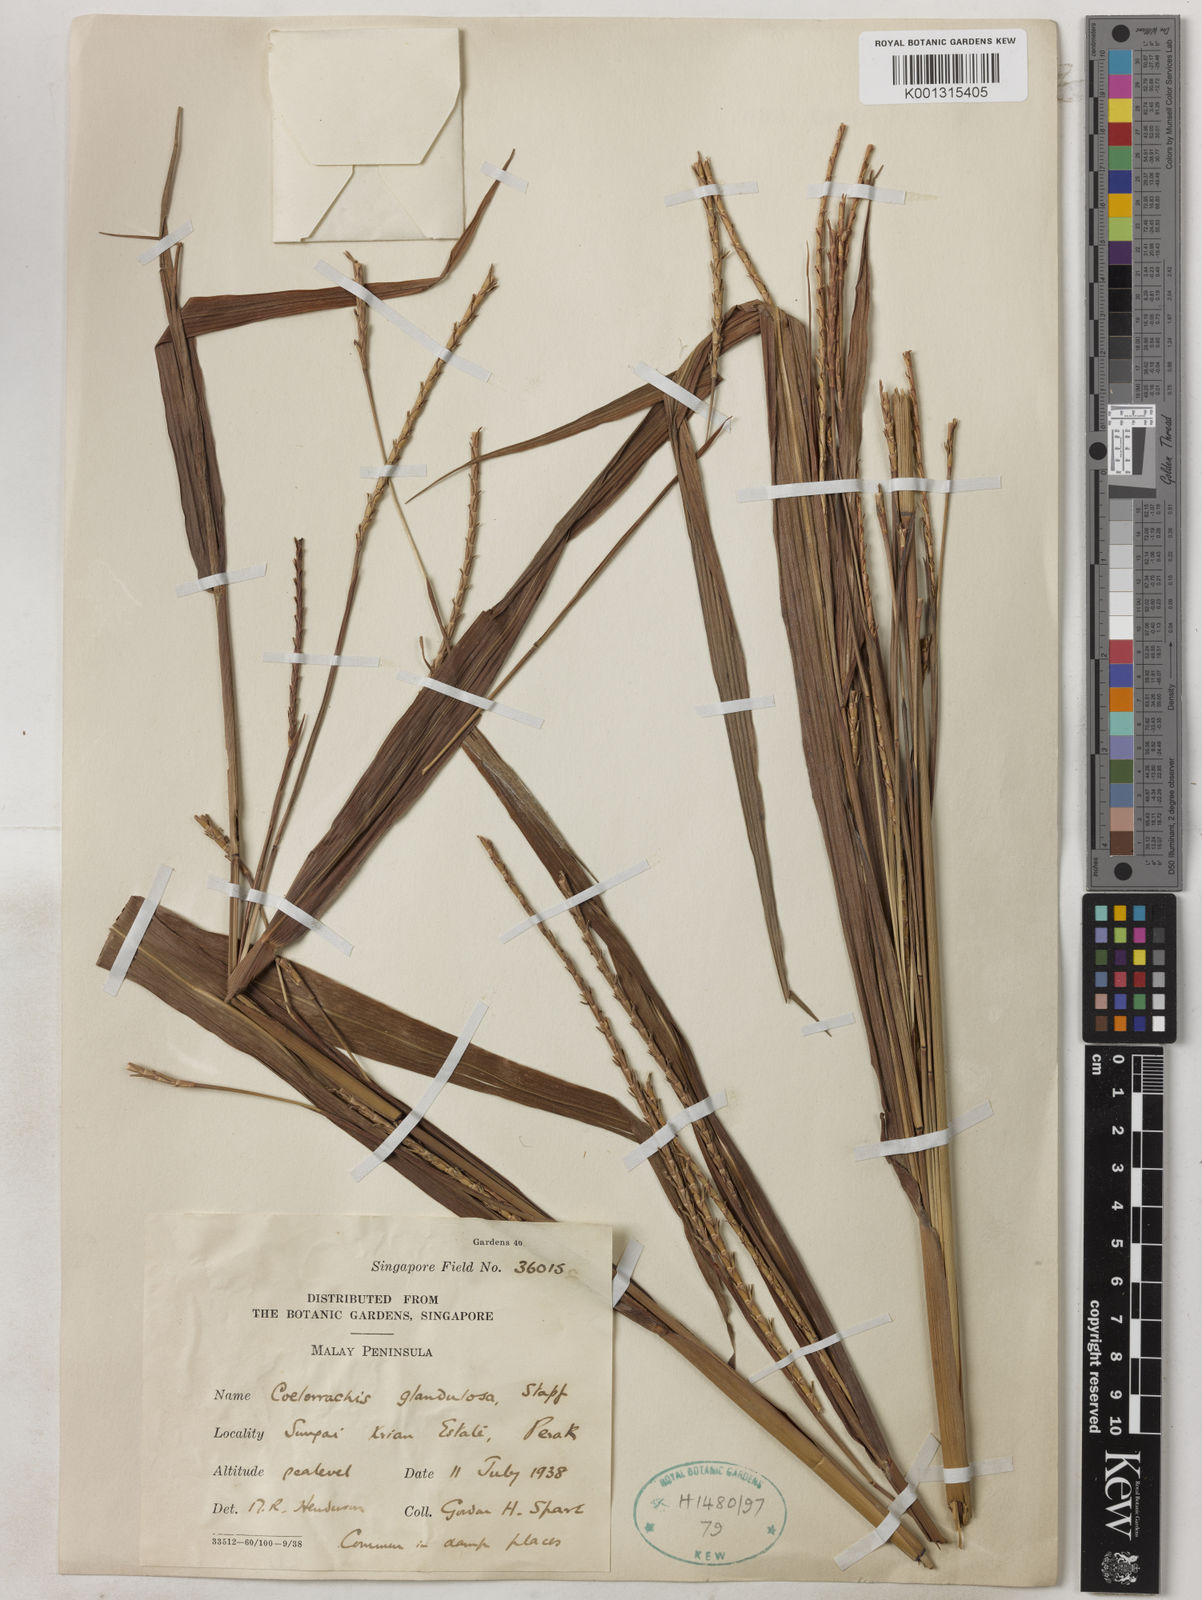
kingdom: Plantae
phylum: Tracheophyta
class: Liliopsida
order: Poales
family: Poaceae
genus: Rottboellia
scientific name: Rottboellia glandulosa
